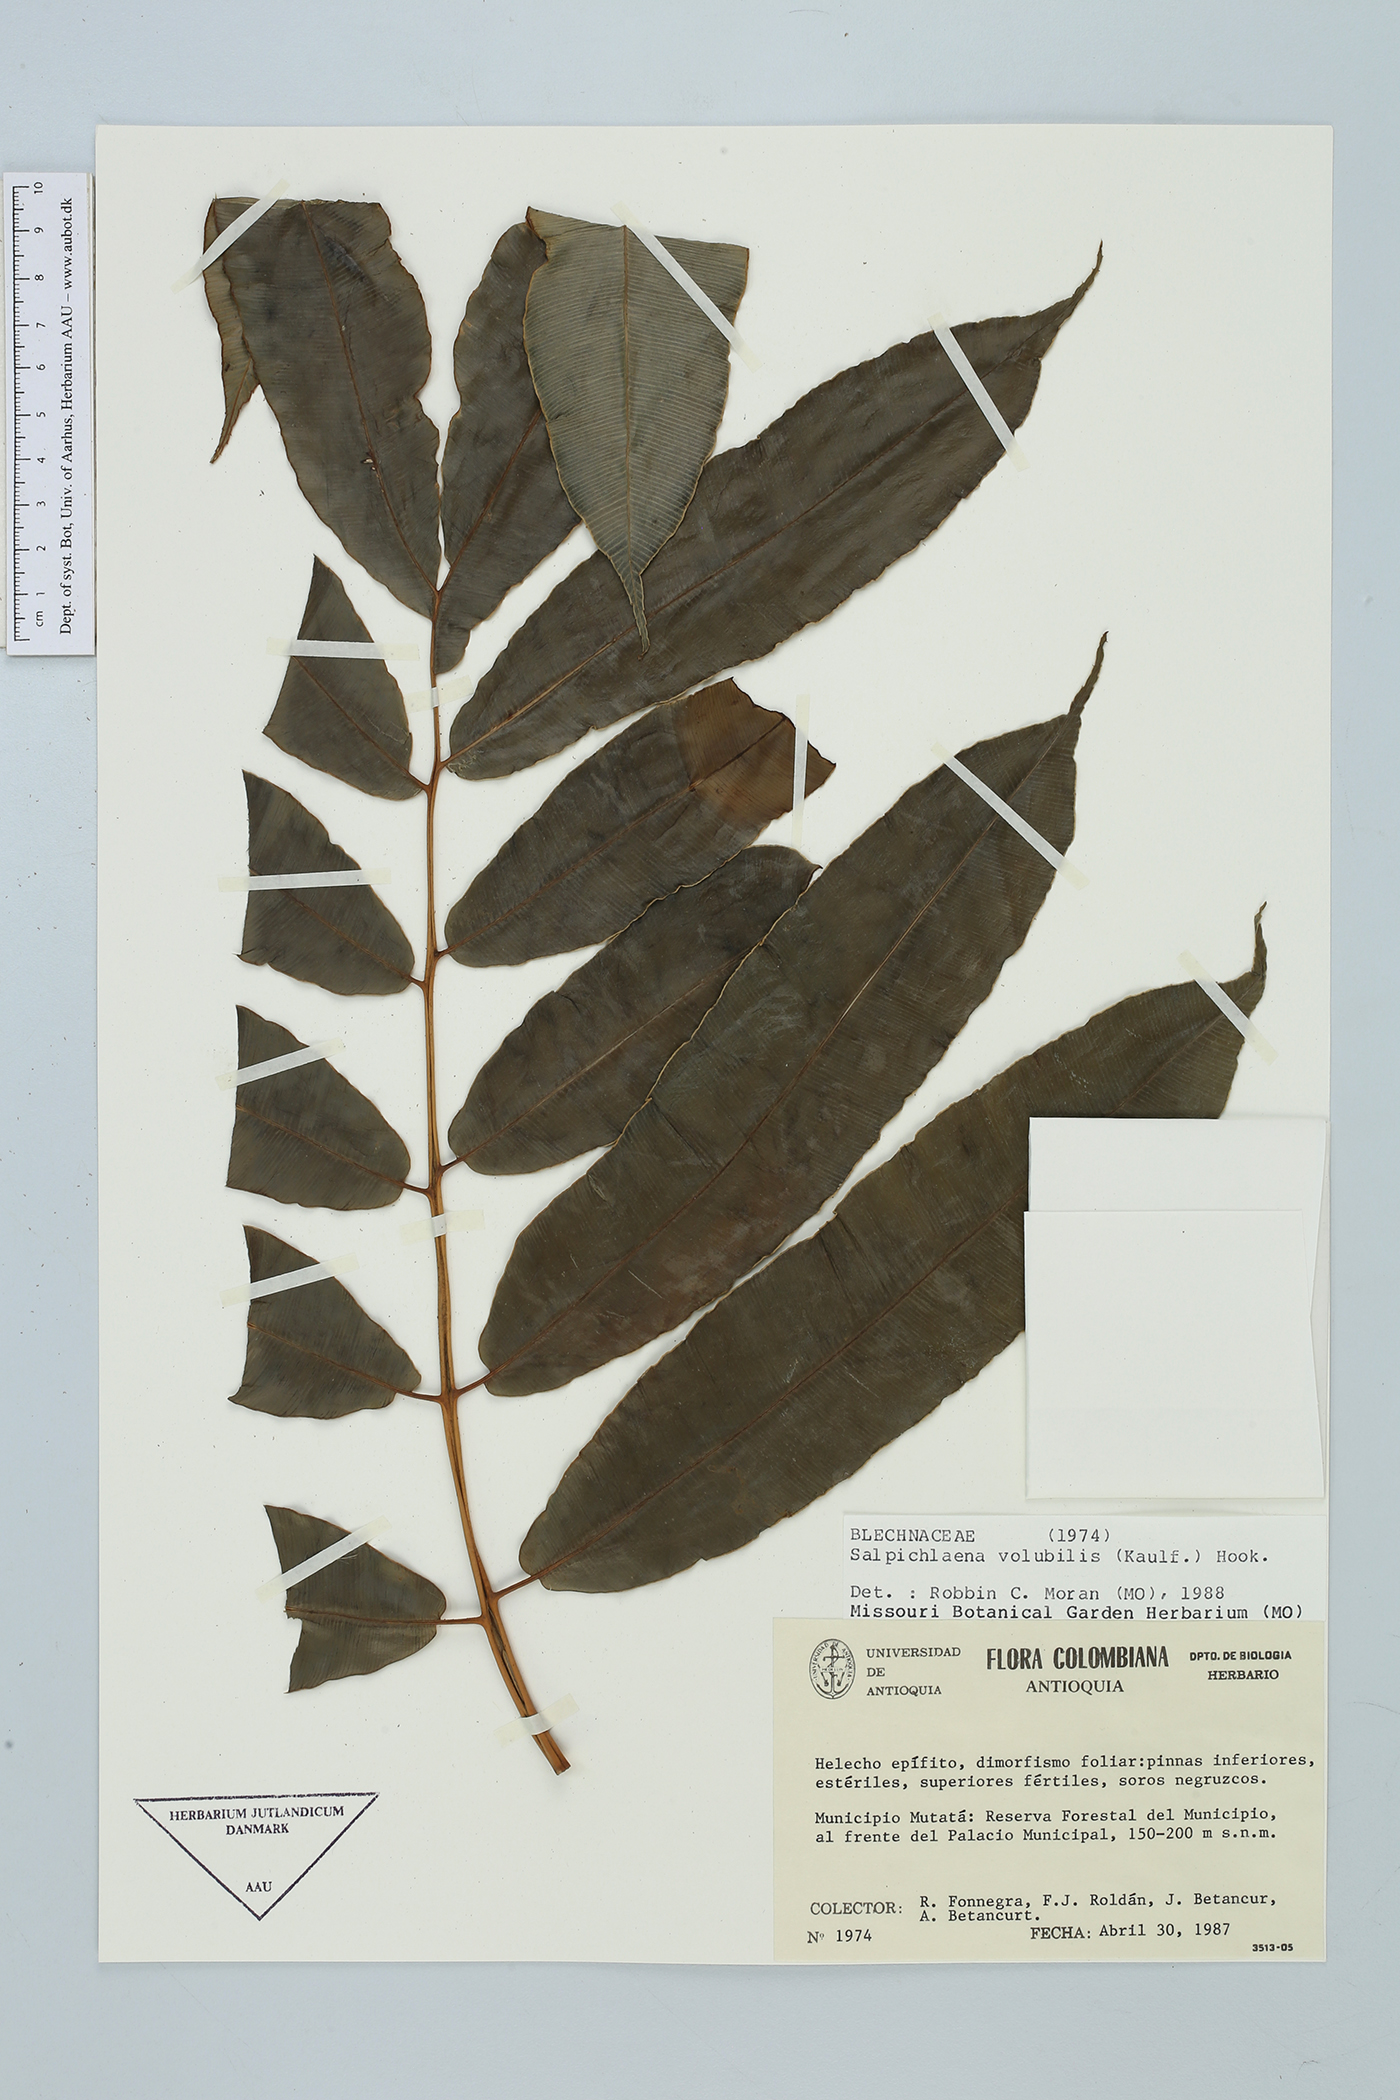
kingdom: Plantae
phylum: Tracheophyta
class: Polypodiopsida
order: Polypodiales
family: Blechnaceae
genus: Salpichlaena
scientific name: Salpichlaena volubilis
